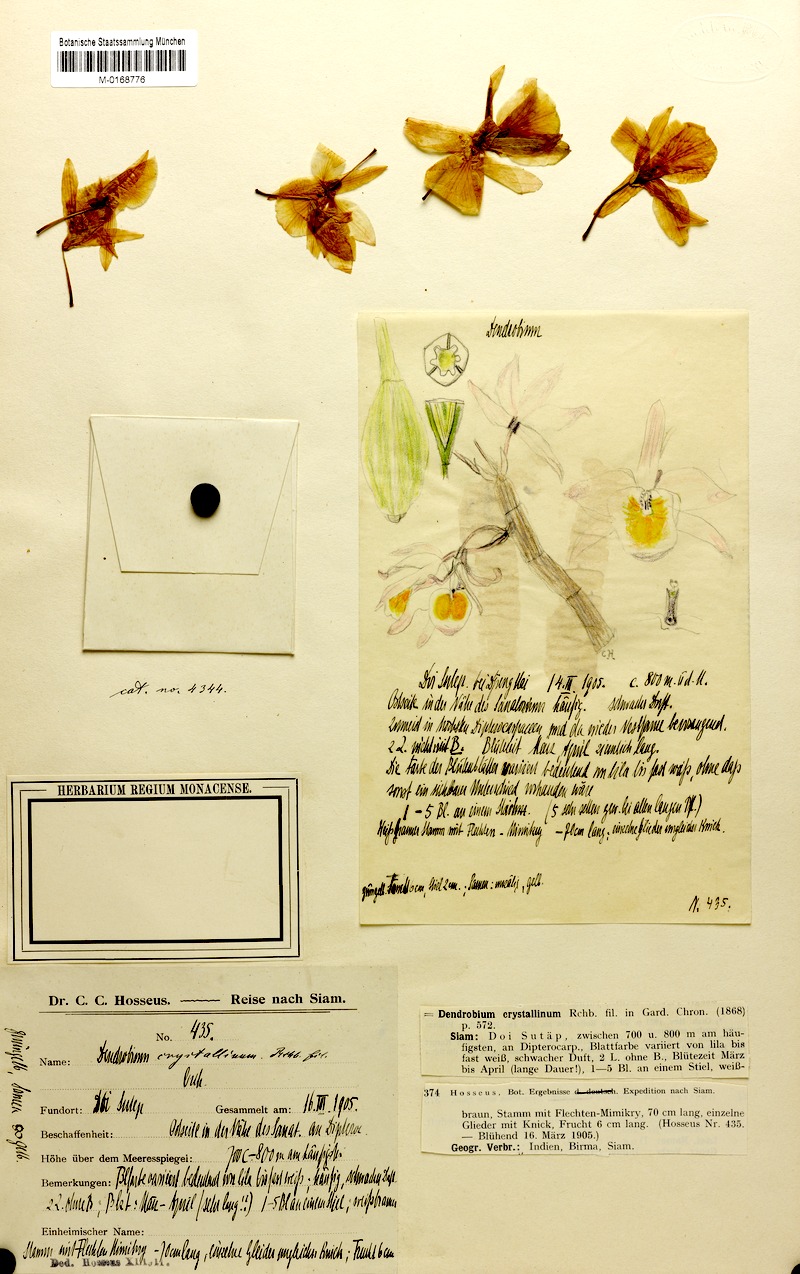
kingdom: Plantae
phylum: Tracheophyta
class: Liliopsida
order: Asparagales
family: Orchidaceae
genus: Dendrobium
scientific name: Dendrobium crystallinum
